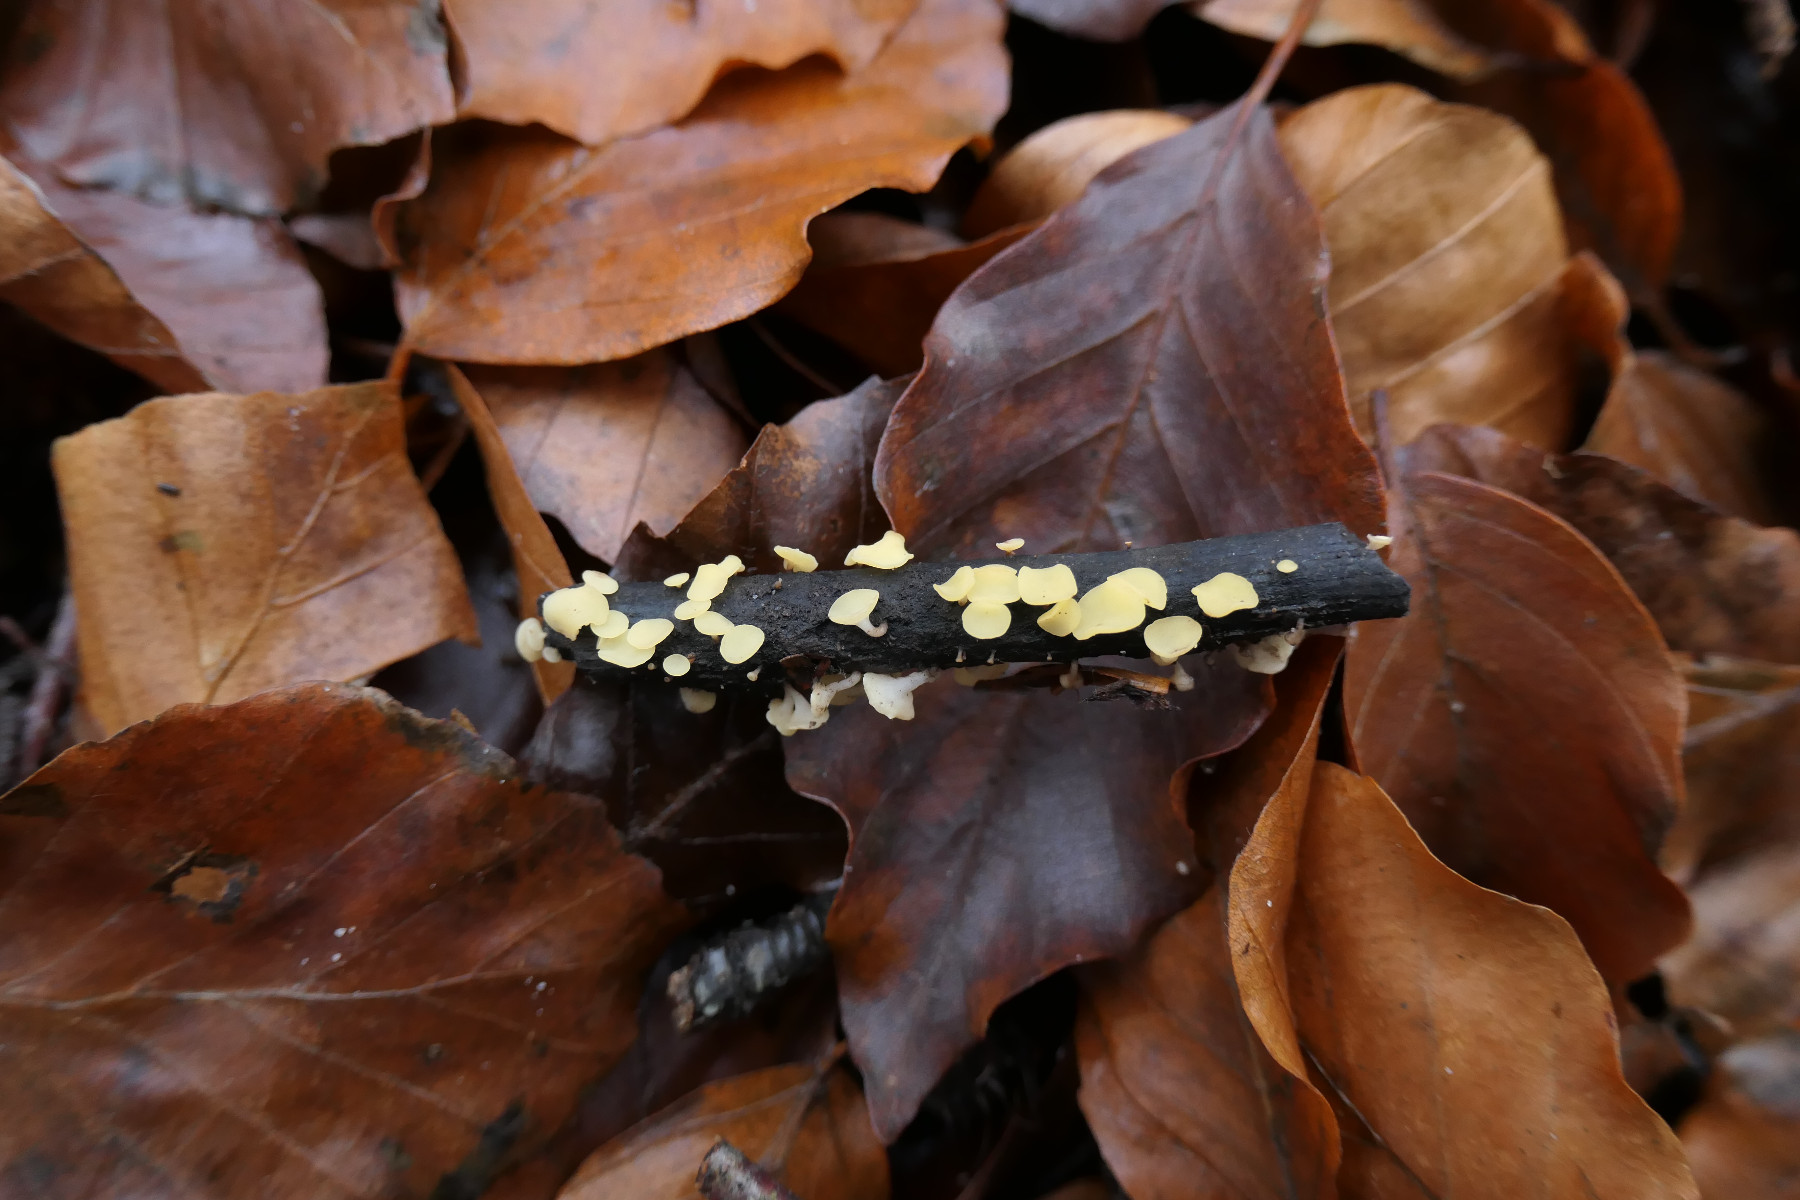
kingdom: Fungi
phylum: Ascomycota
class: Leotiomycetes
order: Helotiales
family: Helotiaceae
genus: Hymenoscyphus
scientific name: Hymenoscyphus serotinus
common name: krumsporet stilkskive
